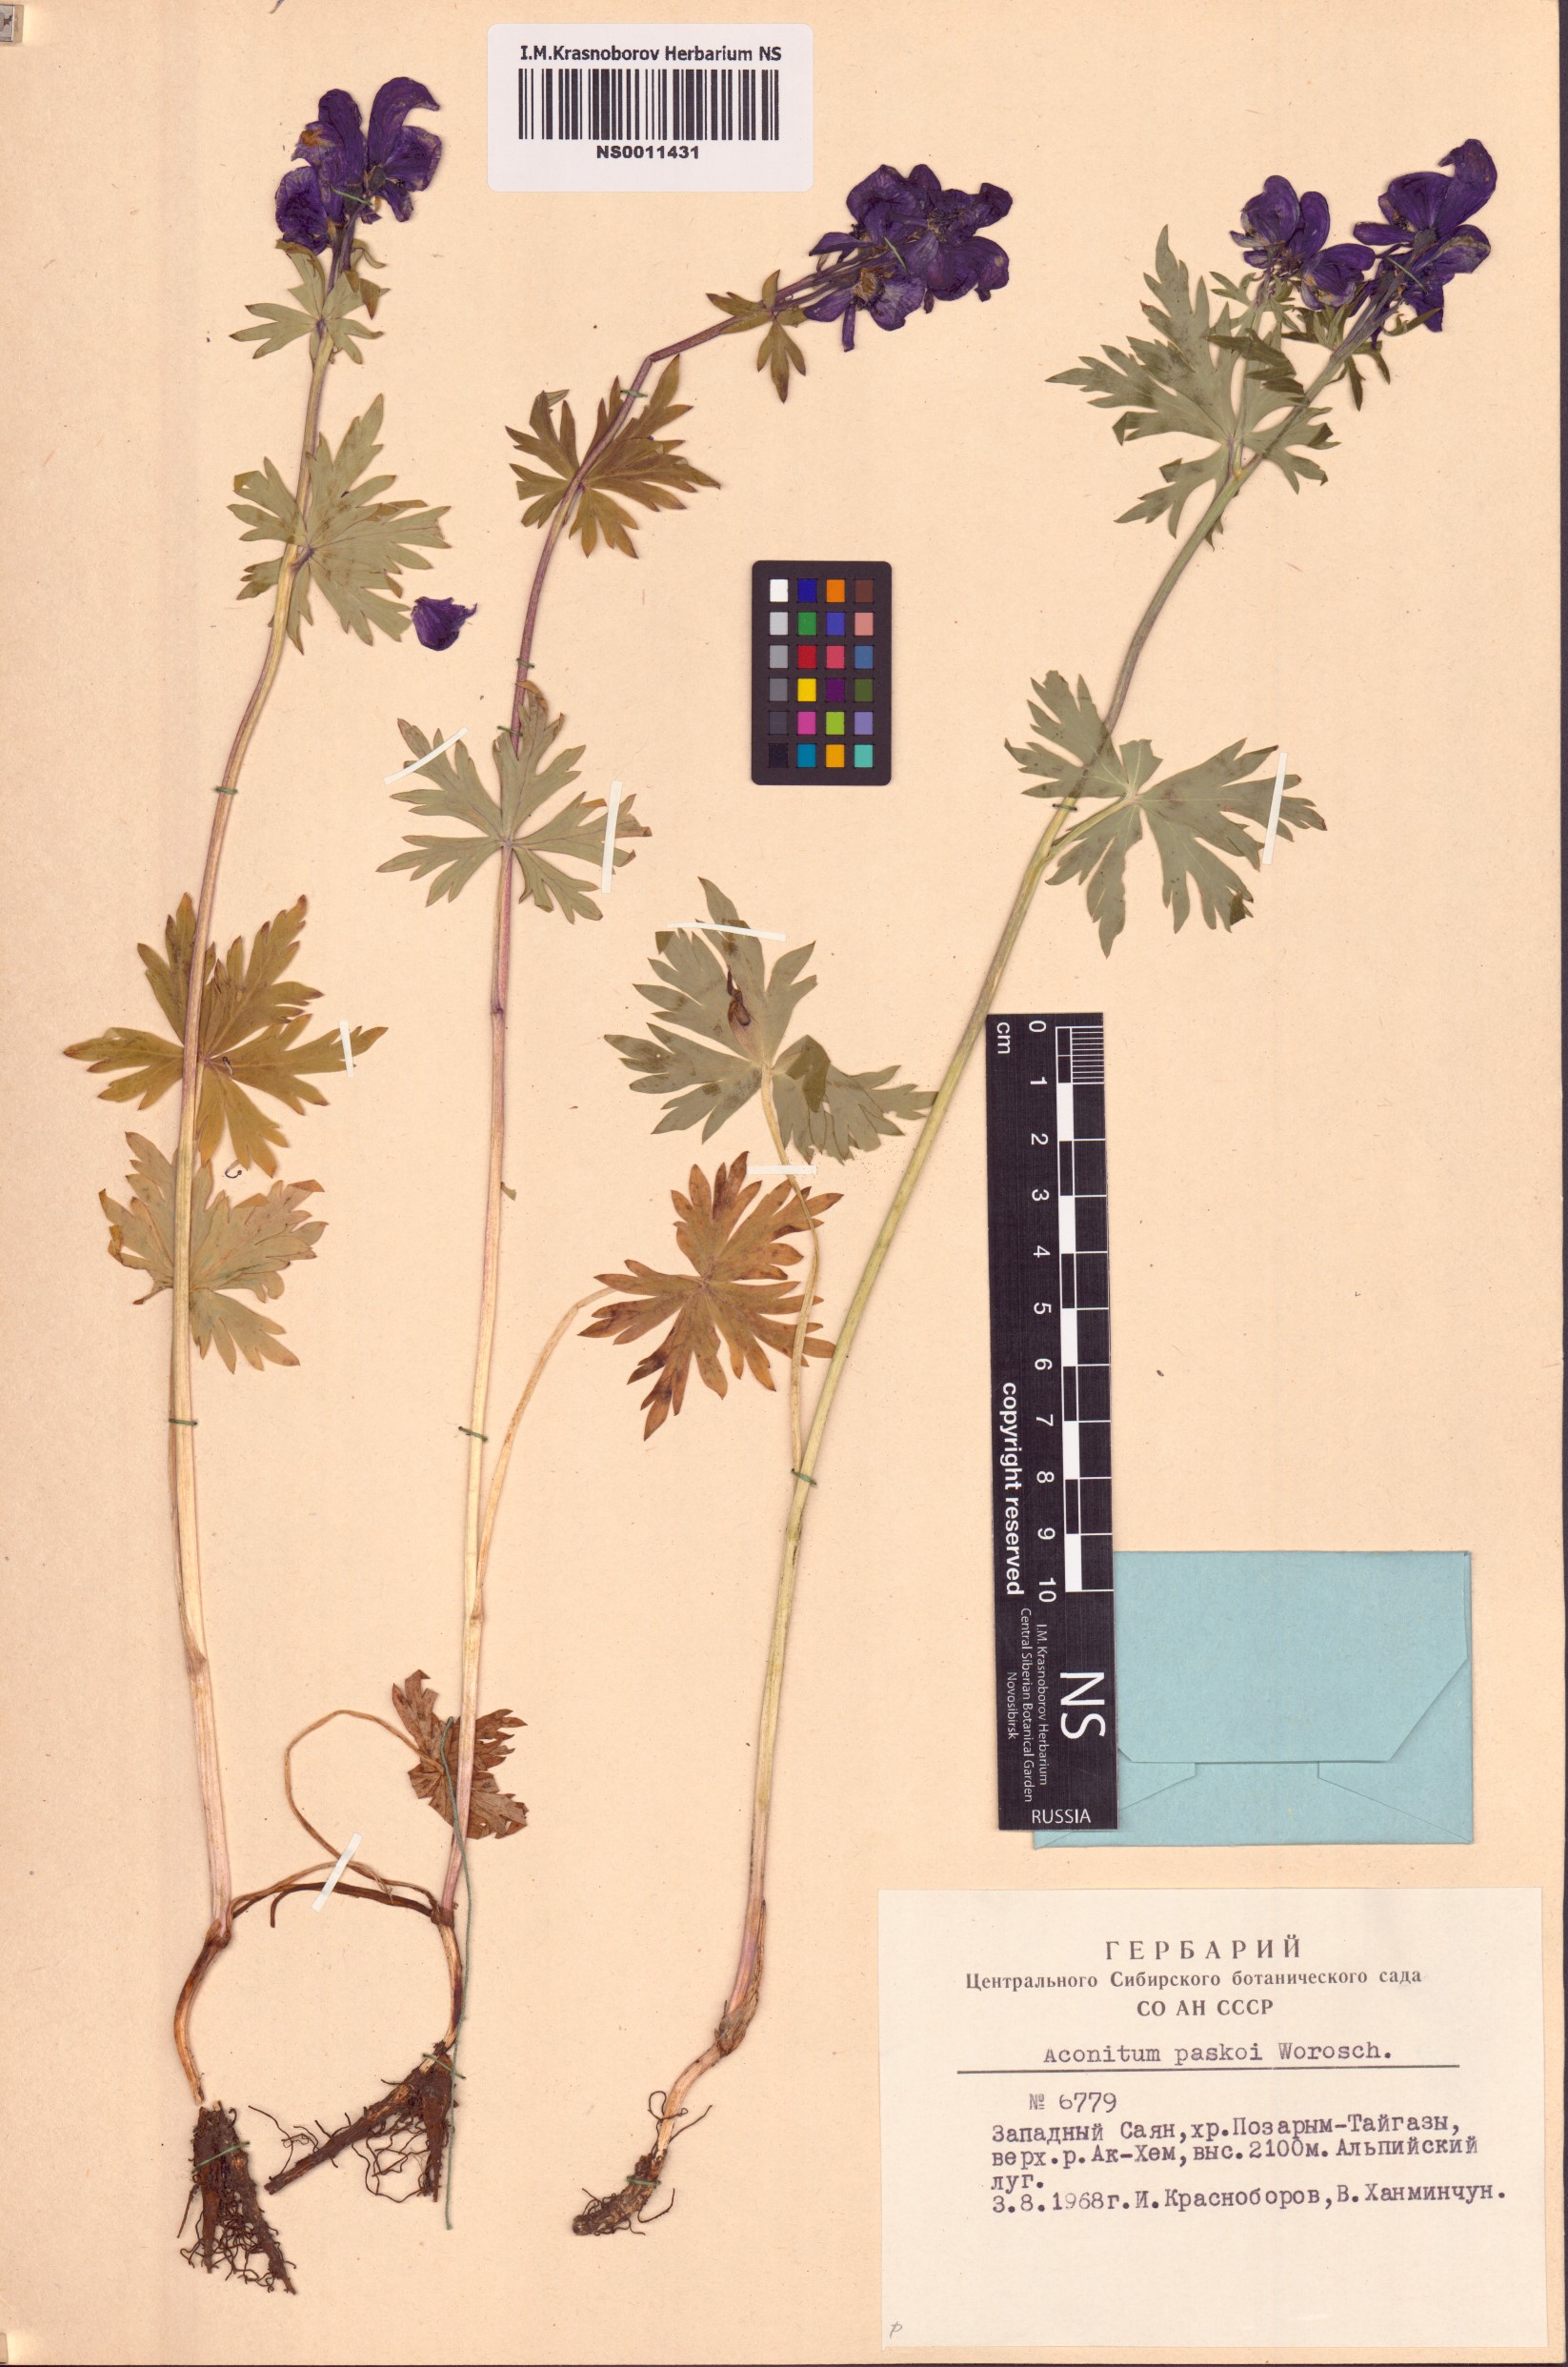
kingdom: Plantae
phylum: Tracheophyta
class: Magnoliopsida
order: Ranunculales
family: Ranunculaceae
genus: Aconitum
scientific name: Aconitum pascoi
